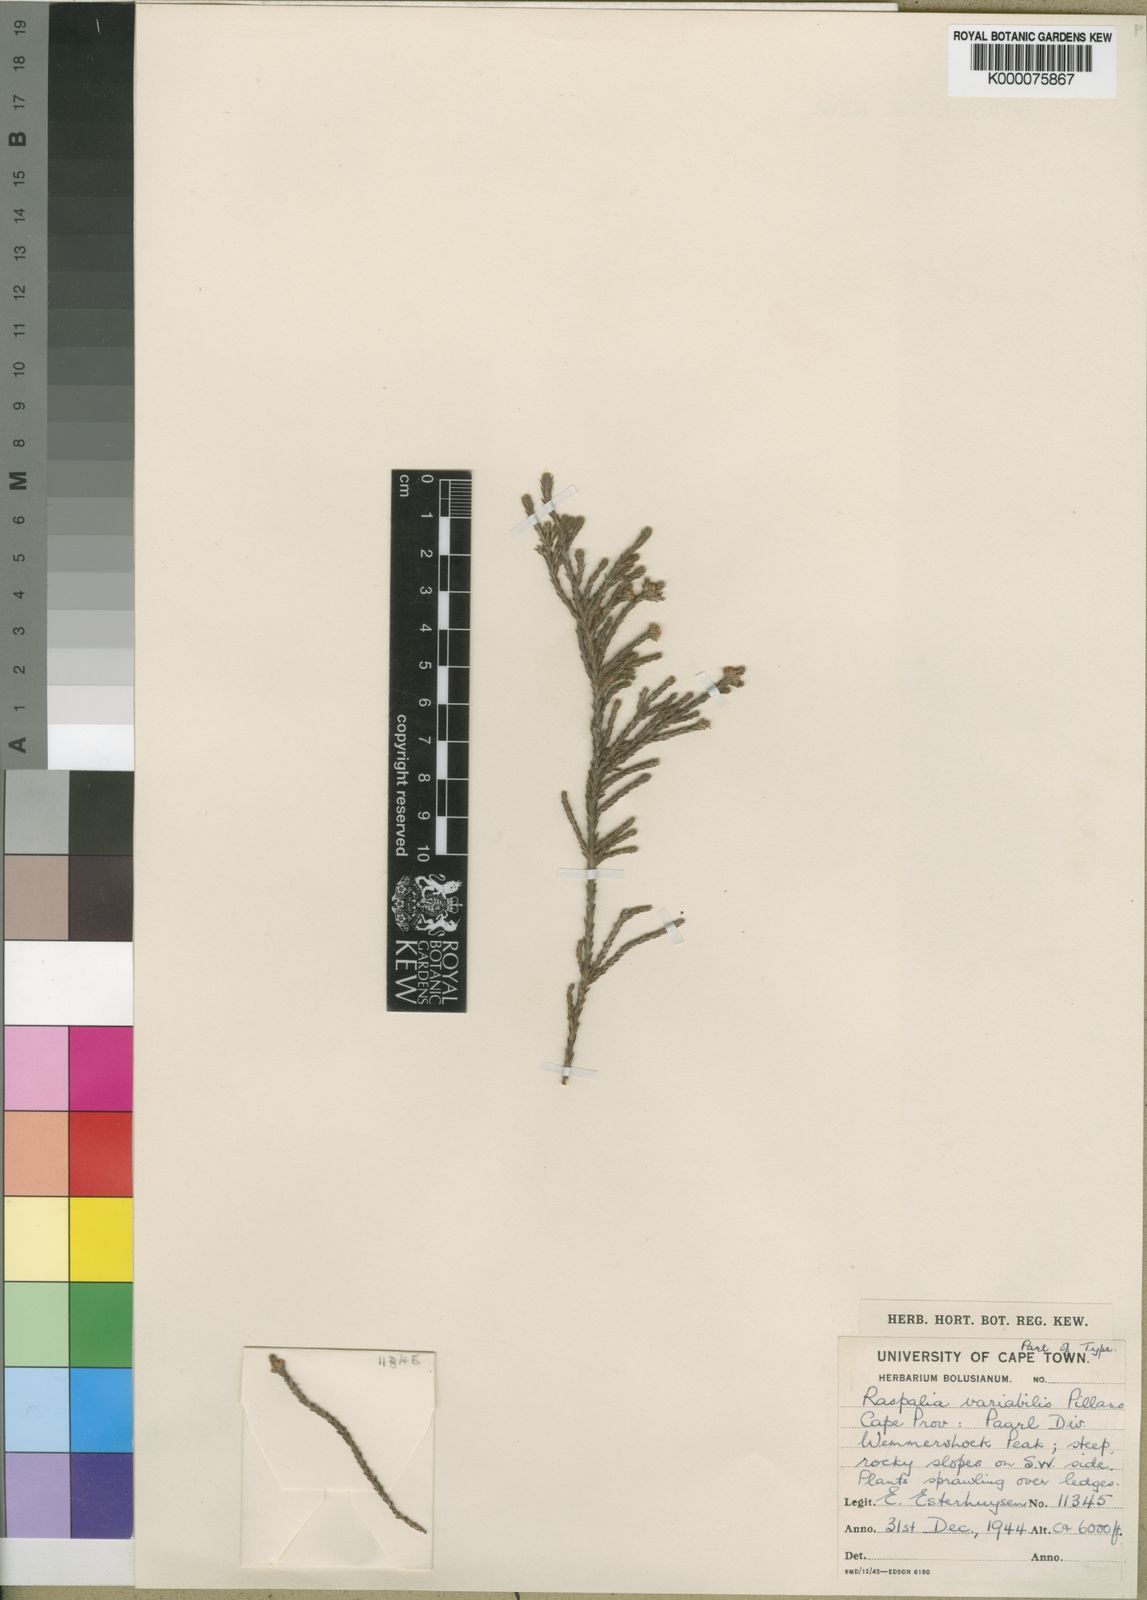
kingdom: Plantae
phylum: Tracheophyta
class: Magnoliopsida
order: Bruniales
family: Bruniaceae
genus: Brunia
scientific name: Brunia variabilis
